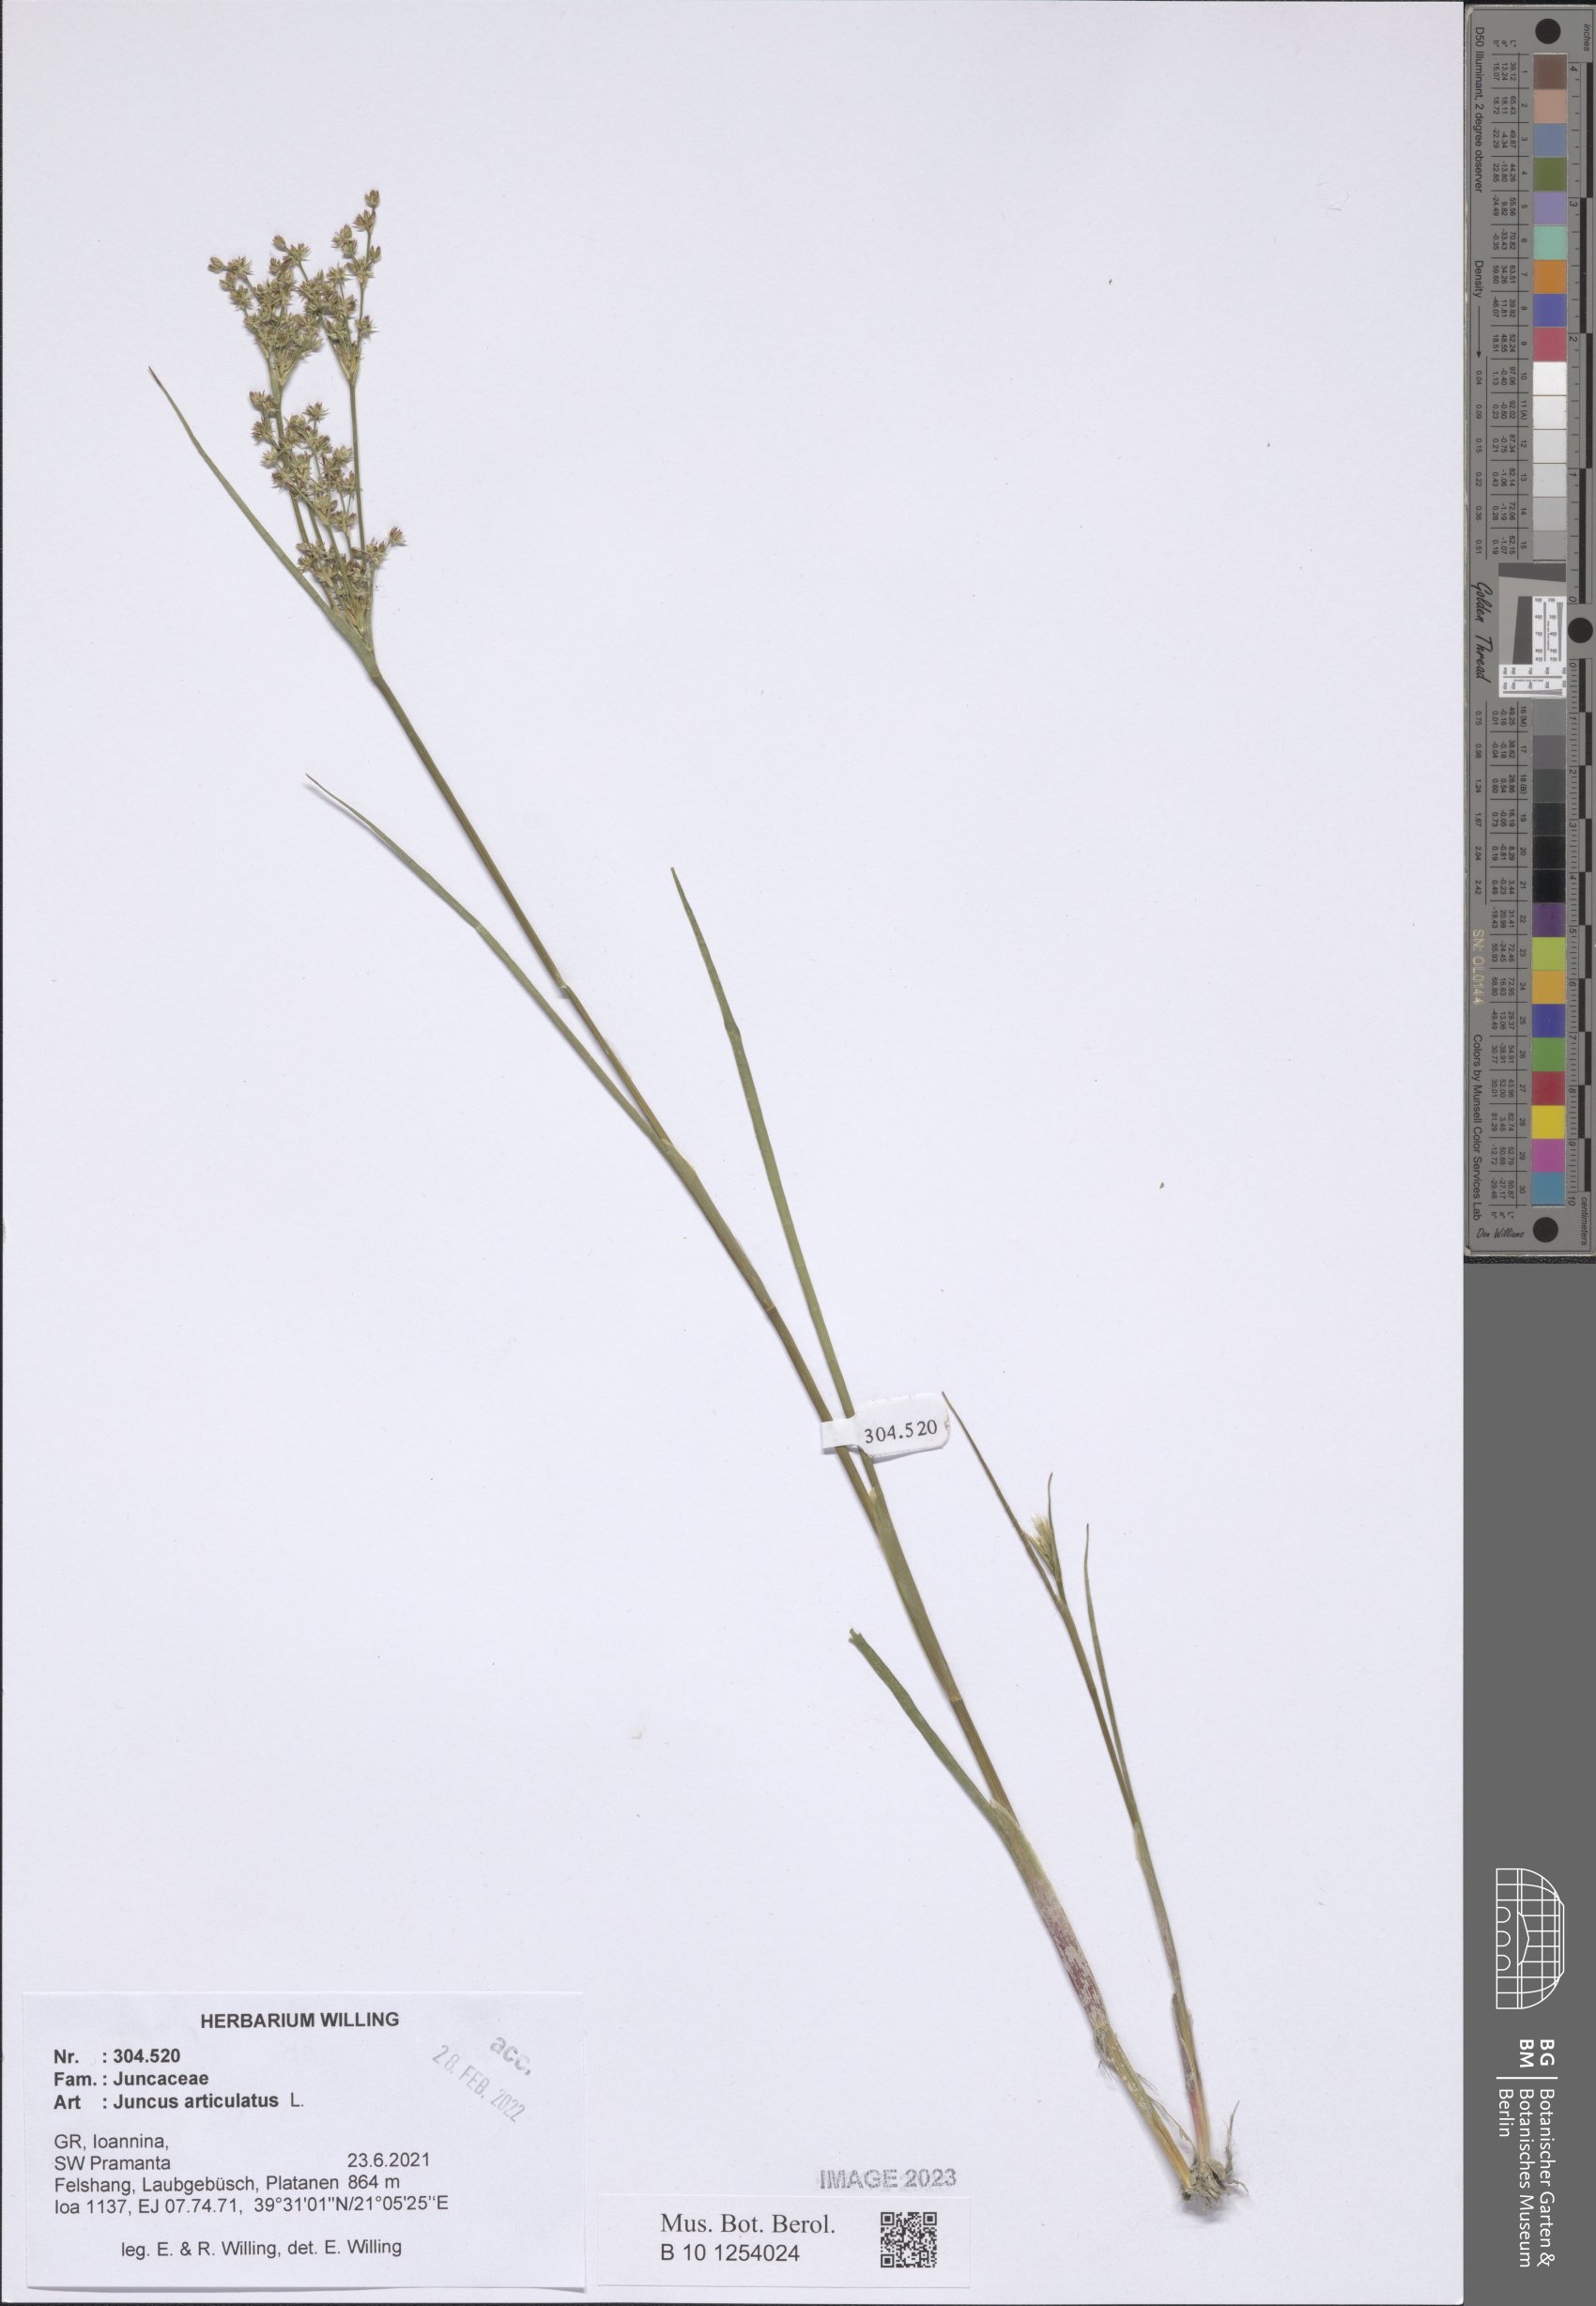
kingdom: Plantae
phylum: Tracheophyta
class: Liliopsida
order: Poales
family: Juncaceae
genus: Juncus
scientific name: Juncus articulatus
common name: Jointed rush
